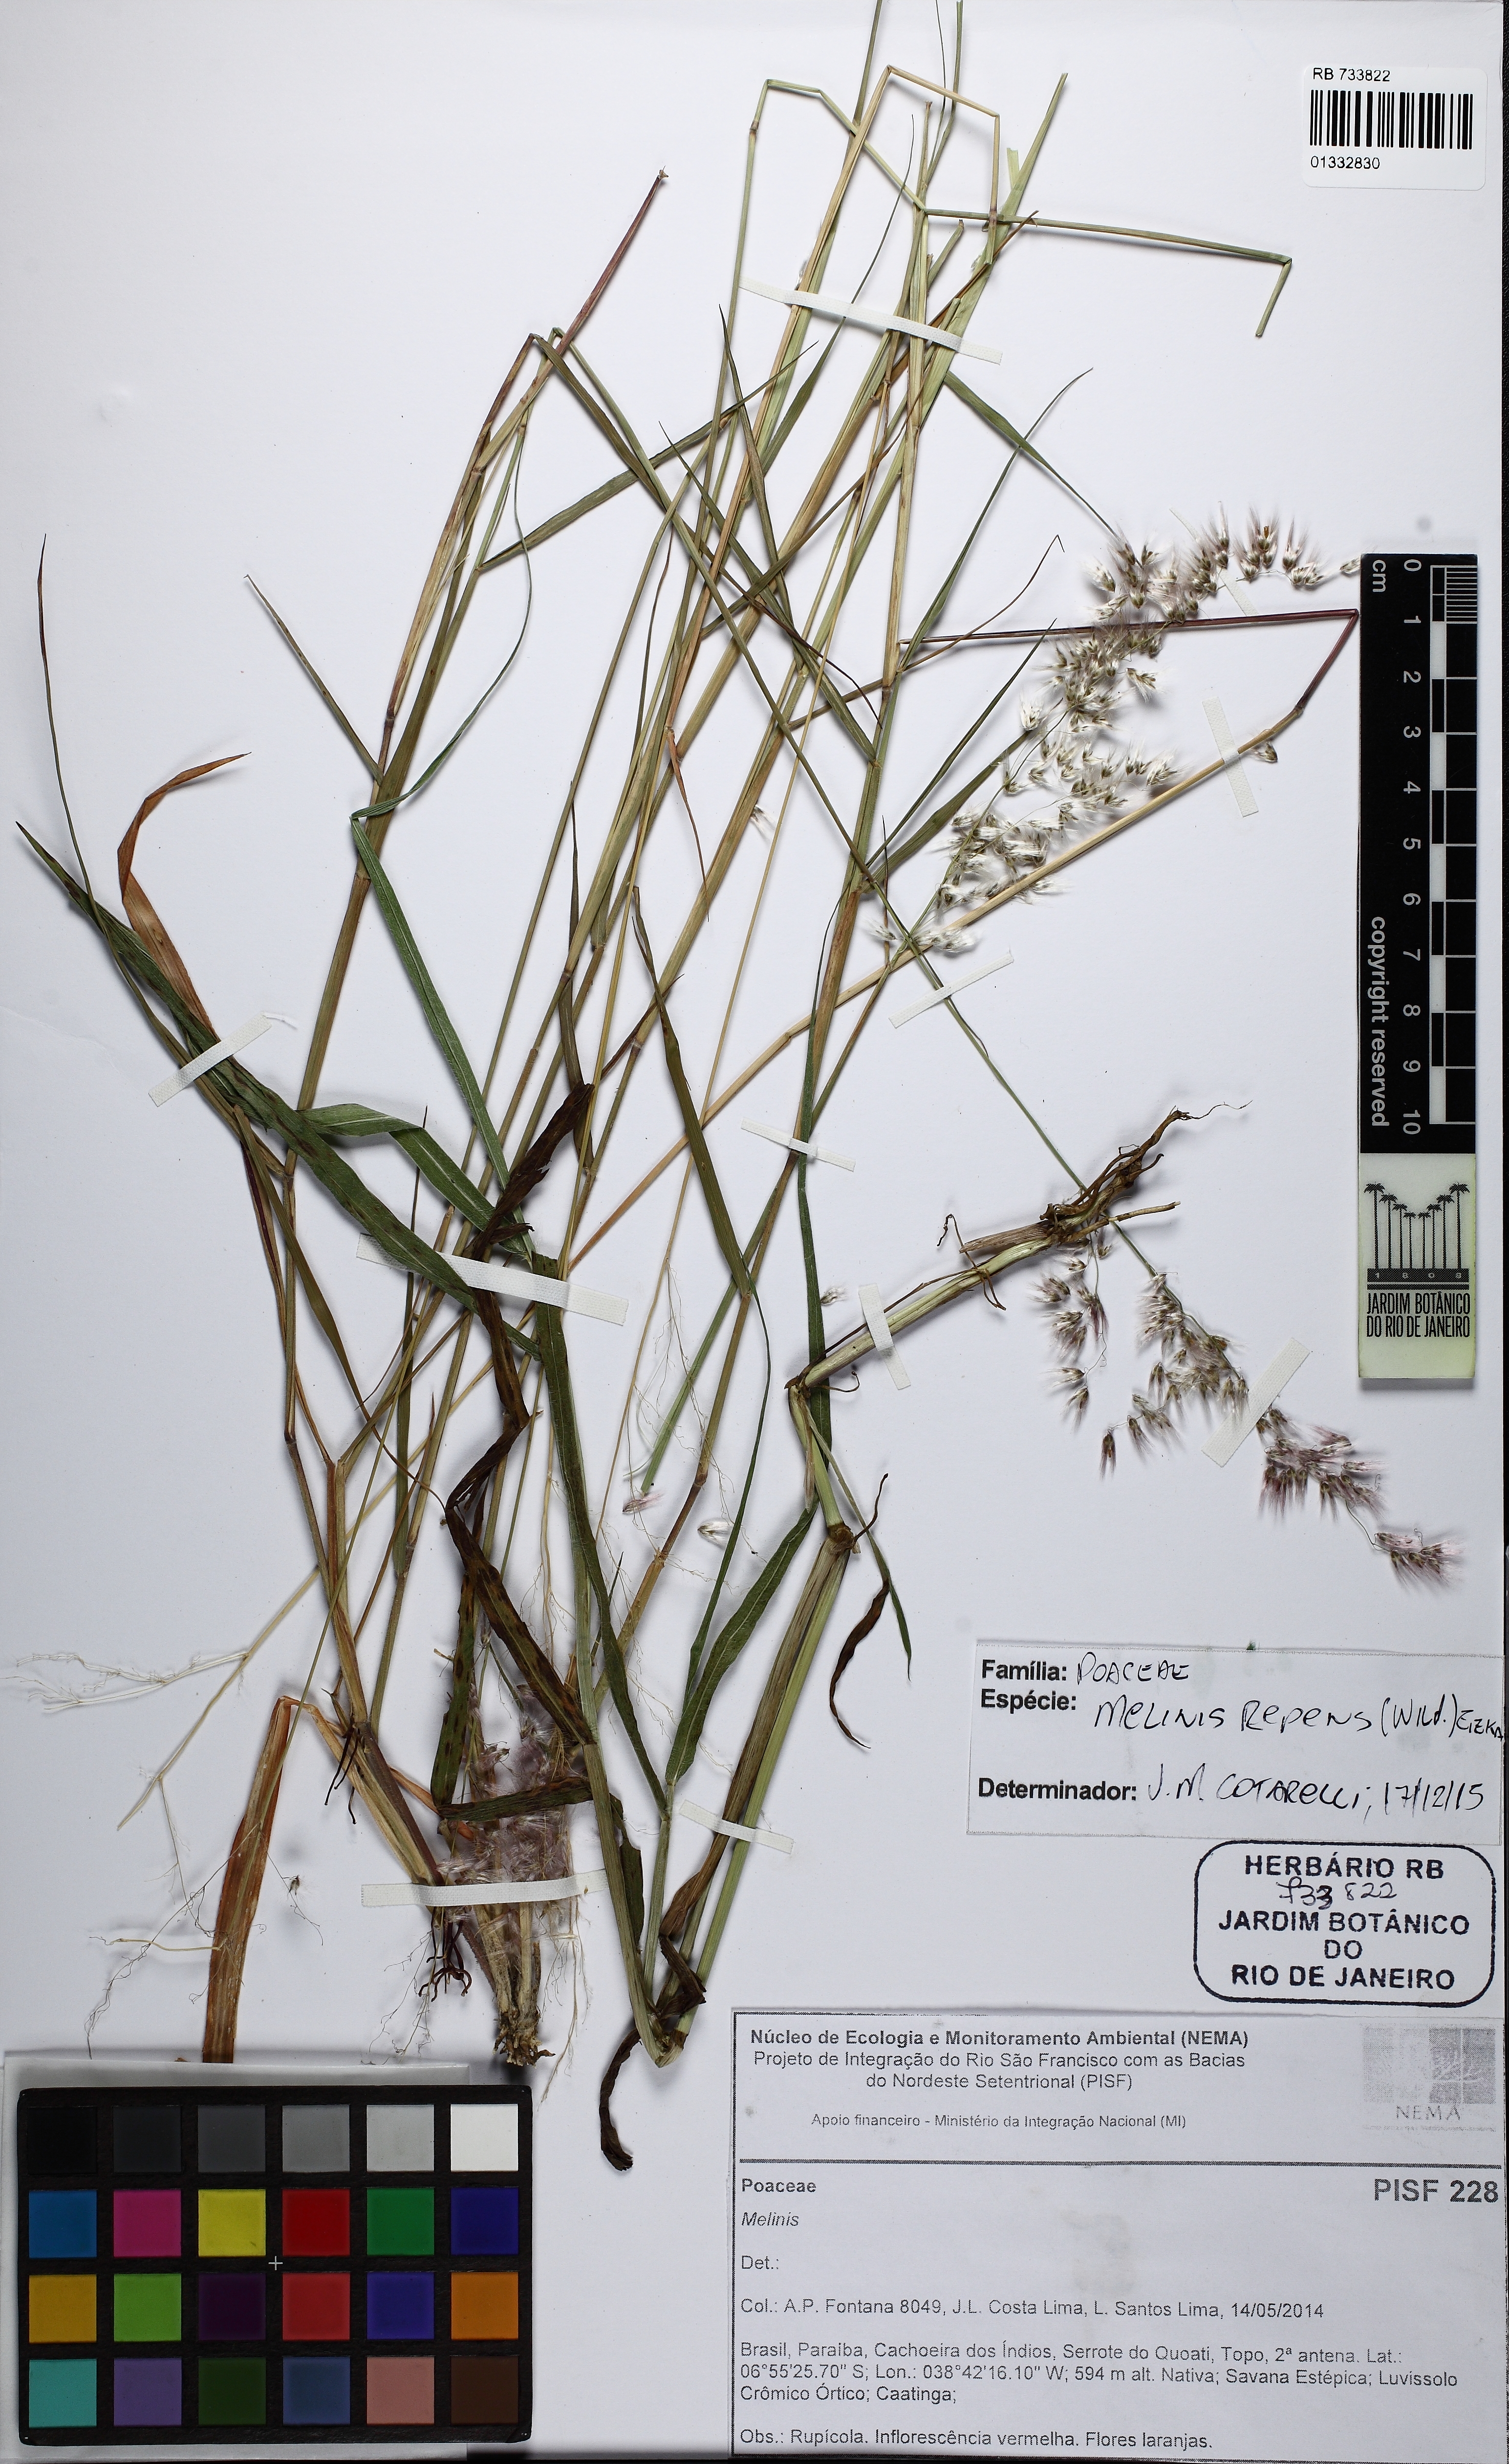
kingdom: Plantae
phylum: Tracheophyta
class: Liliopsida
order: Poales
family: Poaceae
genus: Melinis
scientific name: Melinis repens
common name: Rose natal grass
